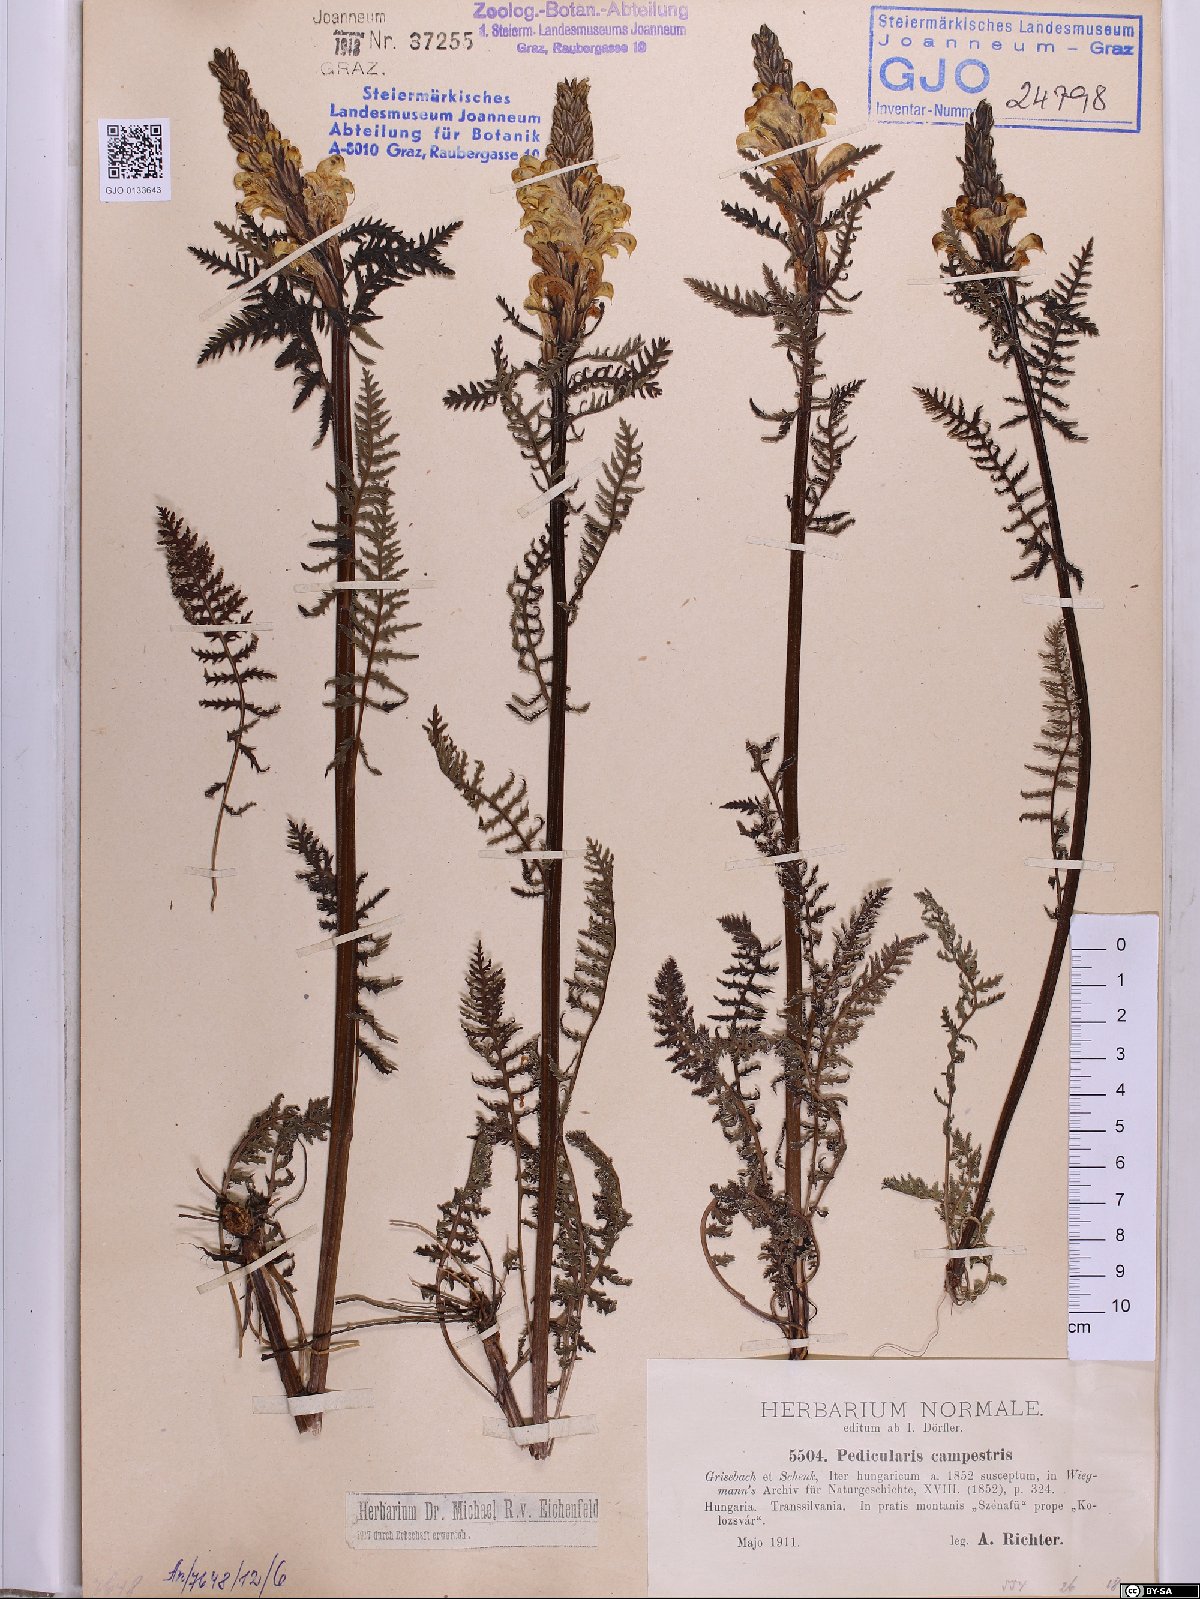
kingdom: Plantae
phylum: Tracheophyta
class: Magnoliopsida
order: Lamiales
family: Orobanchaceae
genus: Pedicularis
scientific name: Pedicularis comosa
